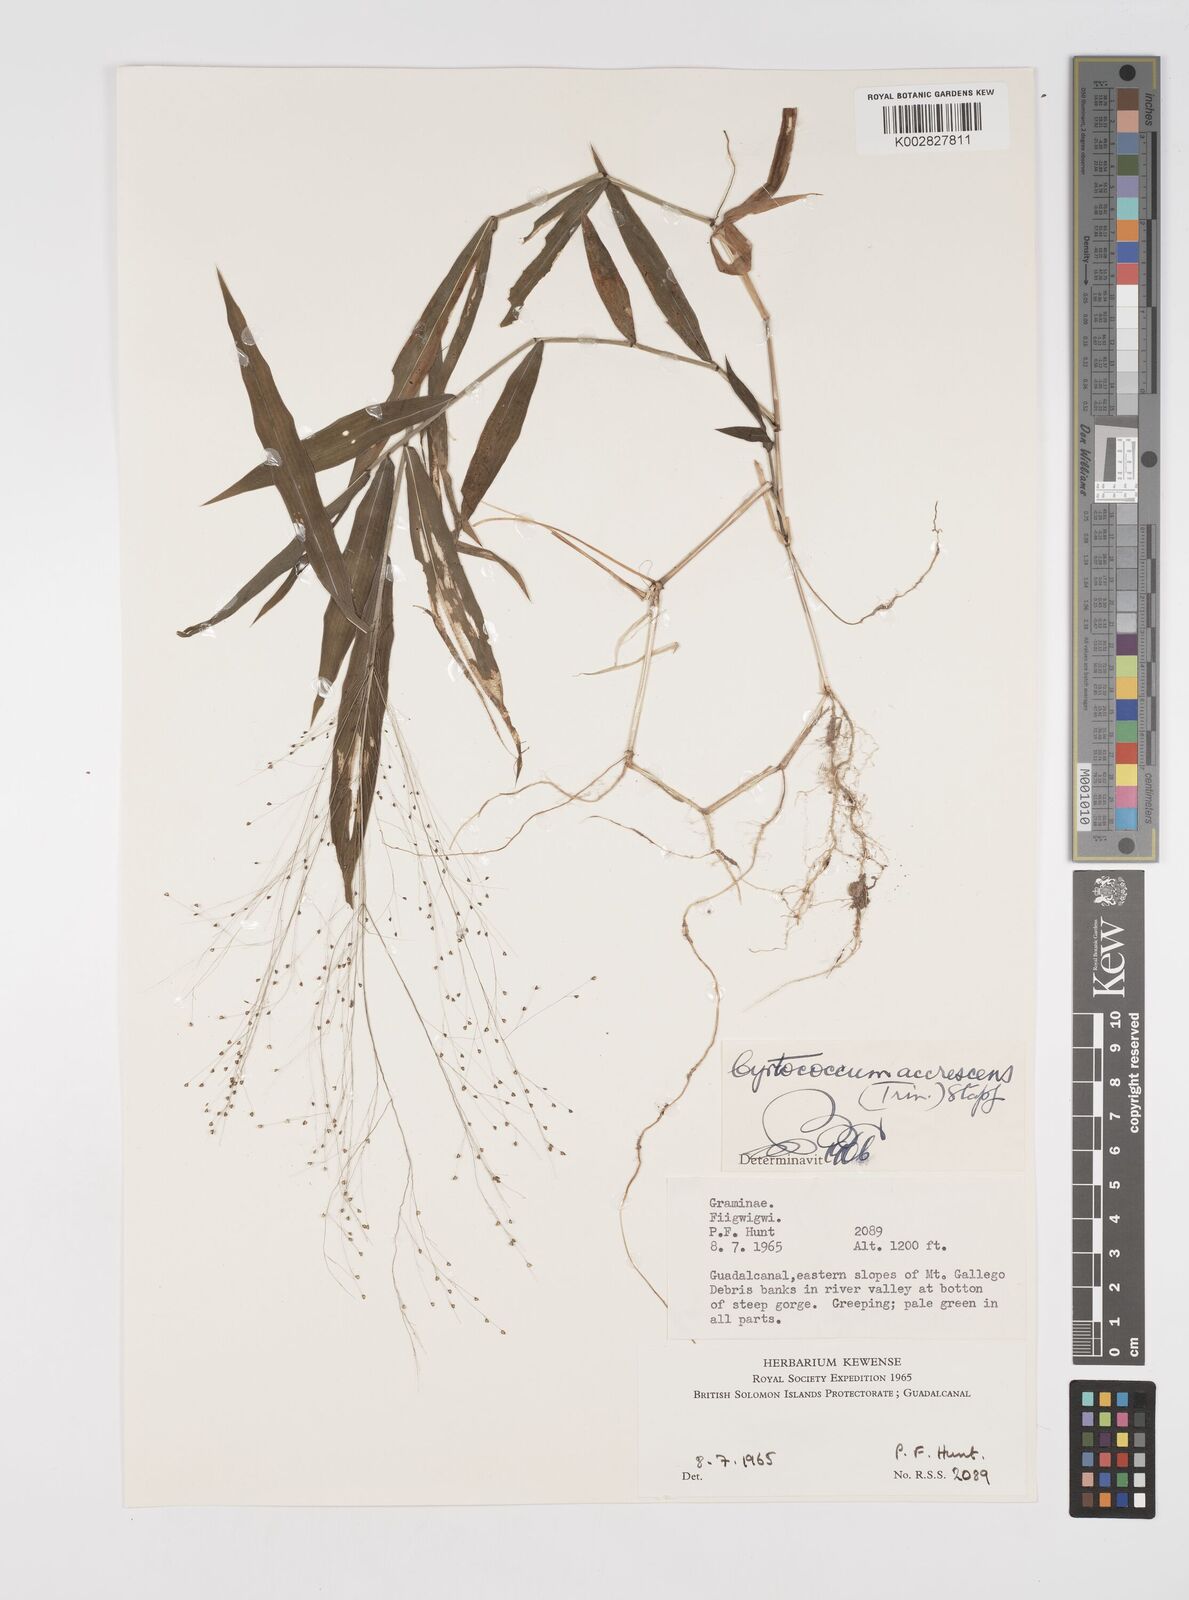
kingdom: Plantae
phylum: Tracheophyta
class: Liliopsida
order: Poales
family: Poaceae
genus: Cyrtococcum
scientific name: Cyrtococcum accrescens
